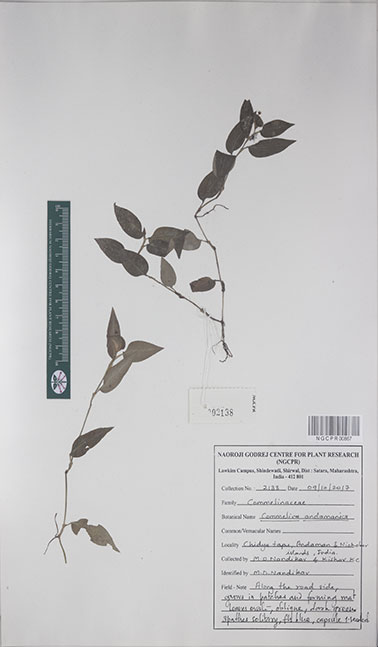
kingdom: Plantae
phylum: Tracheophyta
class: Liliopsida
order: Commelinales
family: Commelinaceae
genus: Commelina
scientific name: Commelina andamanica
